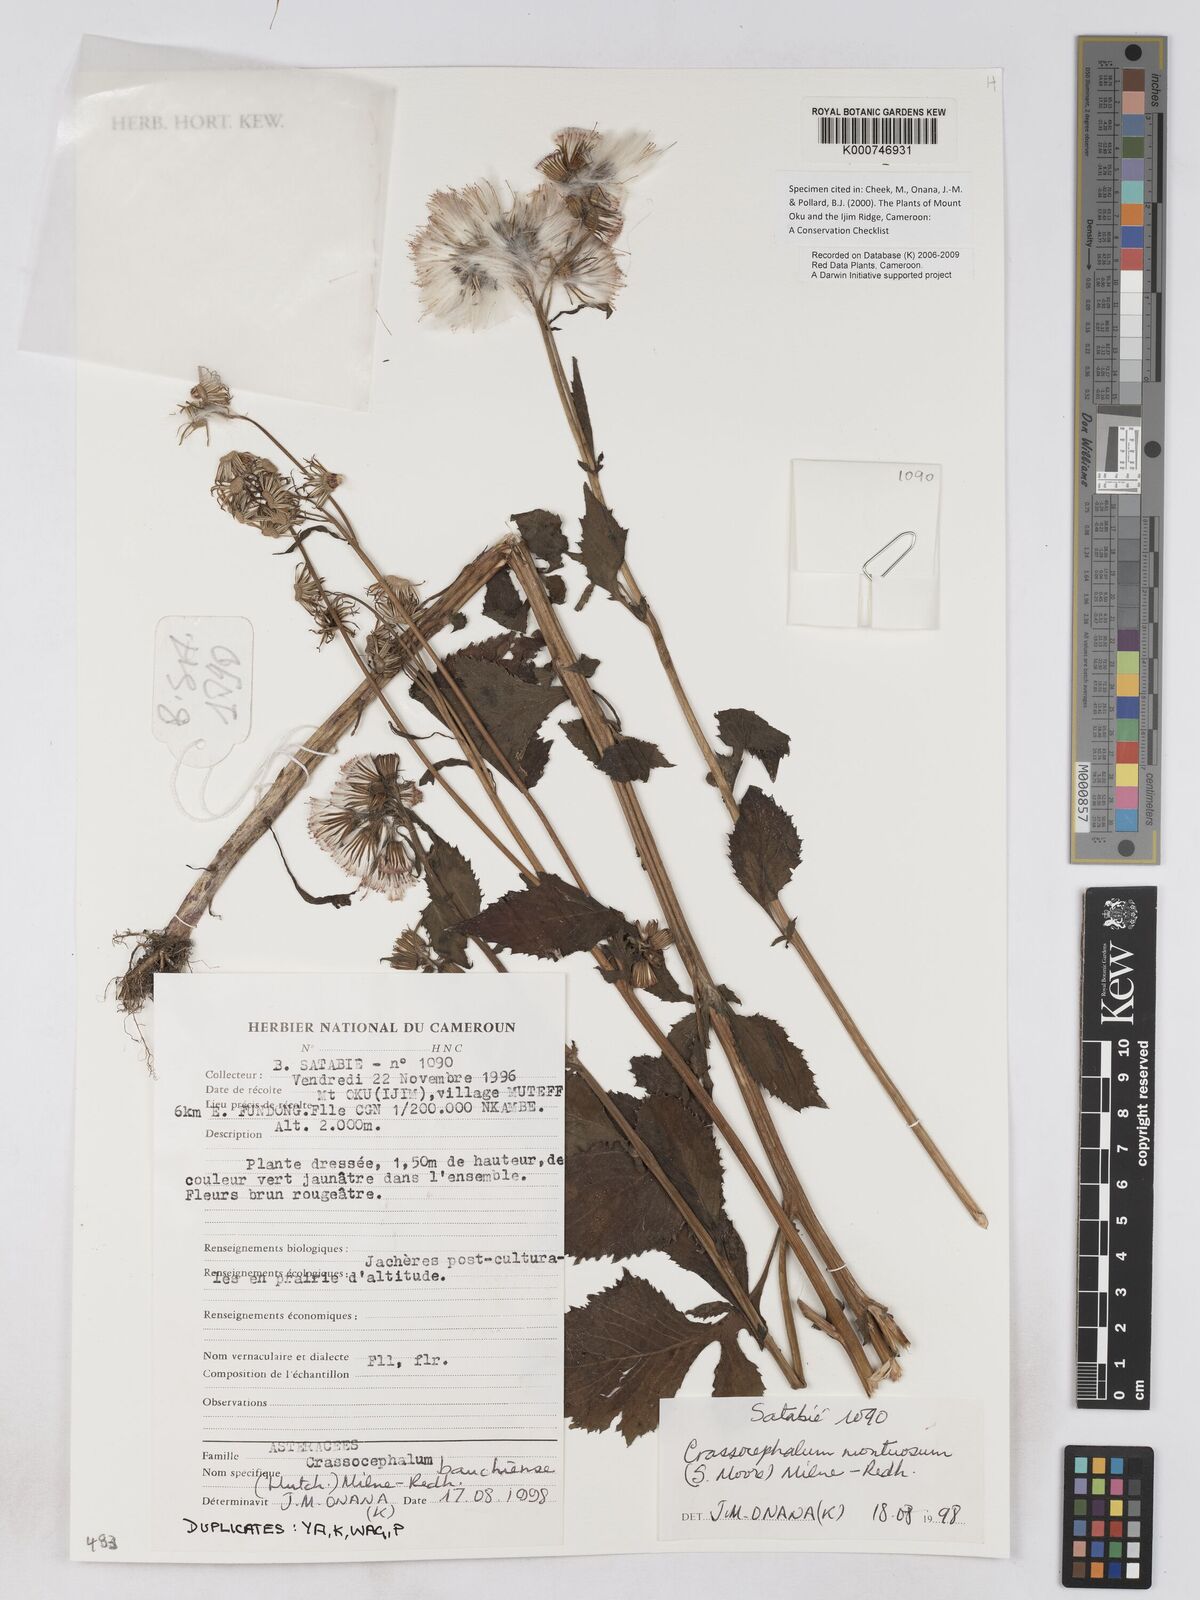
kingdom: Plantae
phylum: Tracheophyta
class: Magnoliopsida
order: Asterales
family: Asteraceae
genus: Crassocephalum
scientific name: Crassocephalum montuosum
